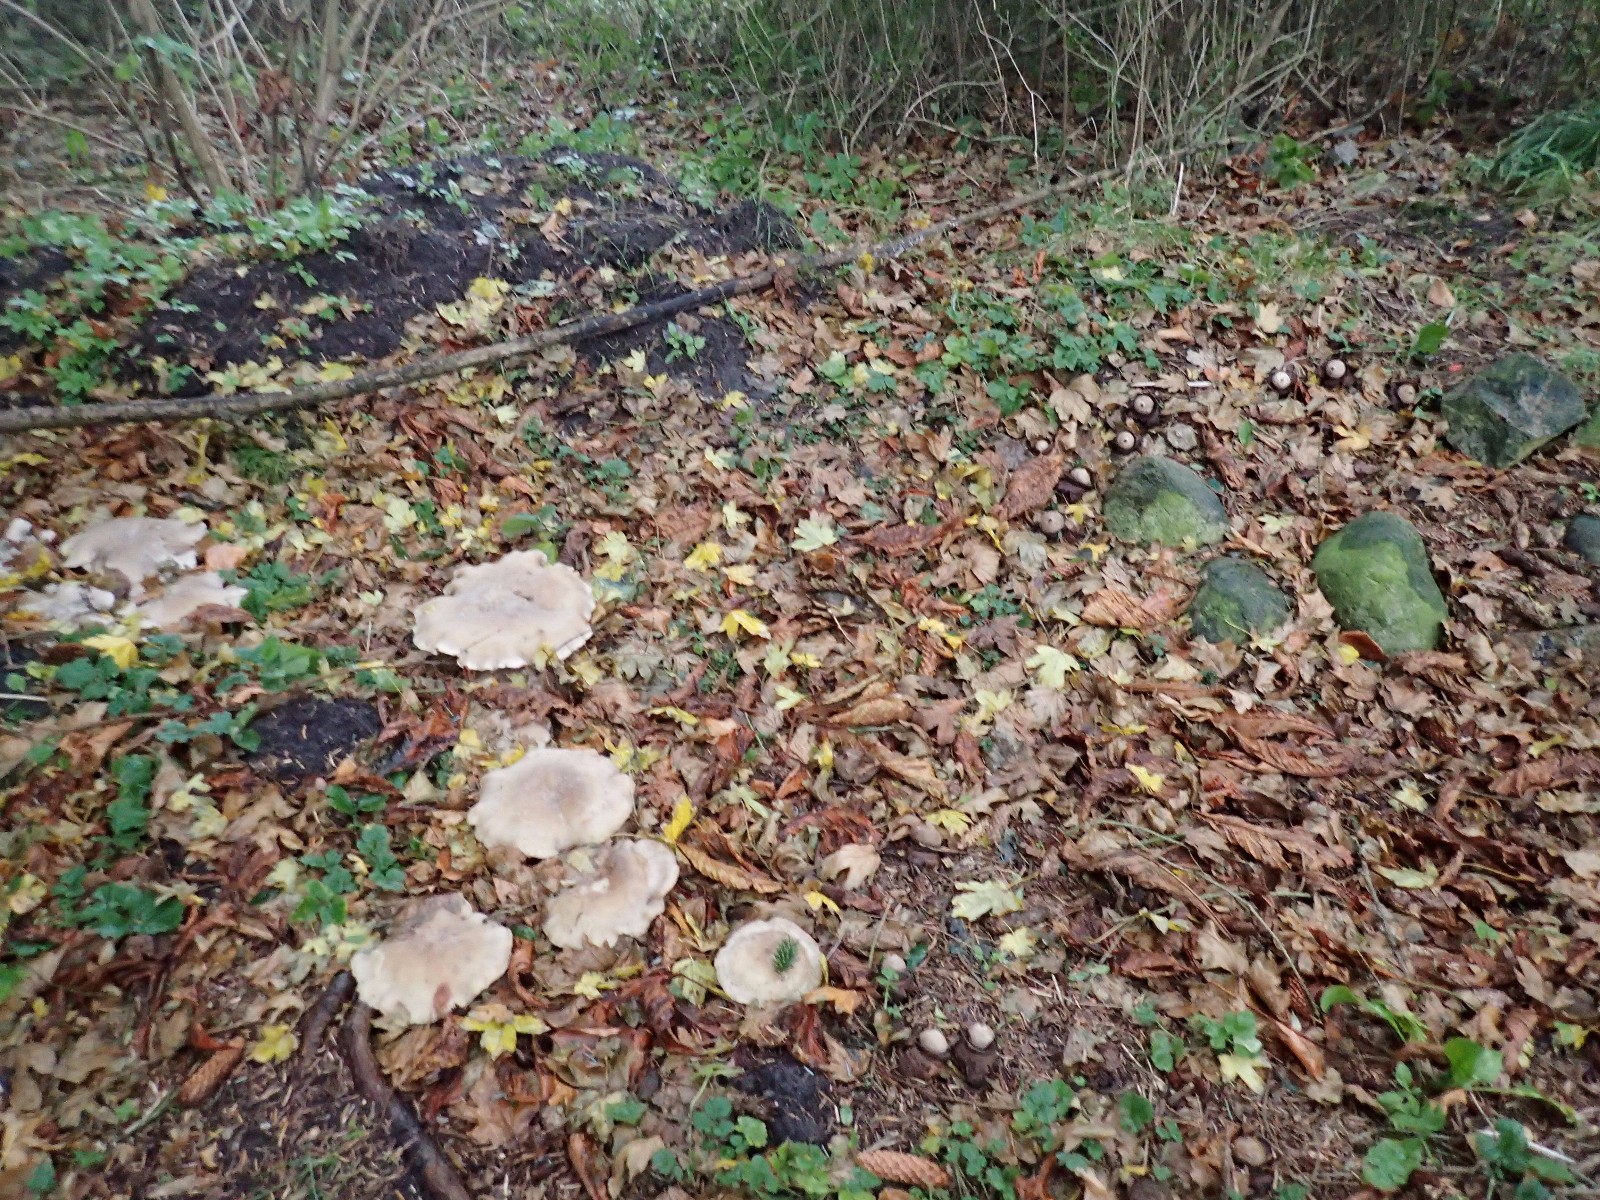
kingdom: Fungi
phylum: Basidiomycota
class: Agaricomycetes
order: Agaricales
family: Tricholomataceae
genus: Clitocybe
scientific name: Clitocybe nebularis
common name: tåge-tragthat
